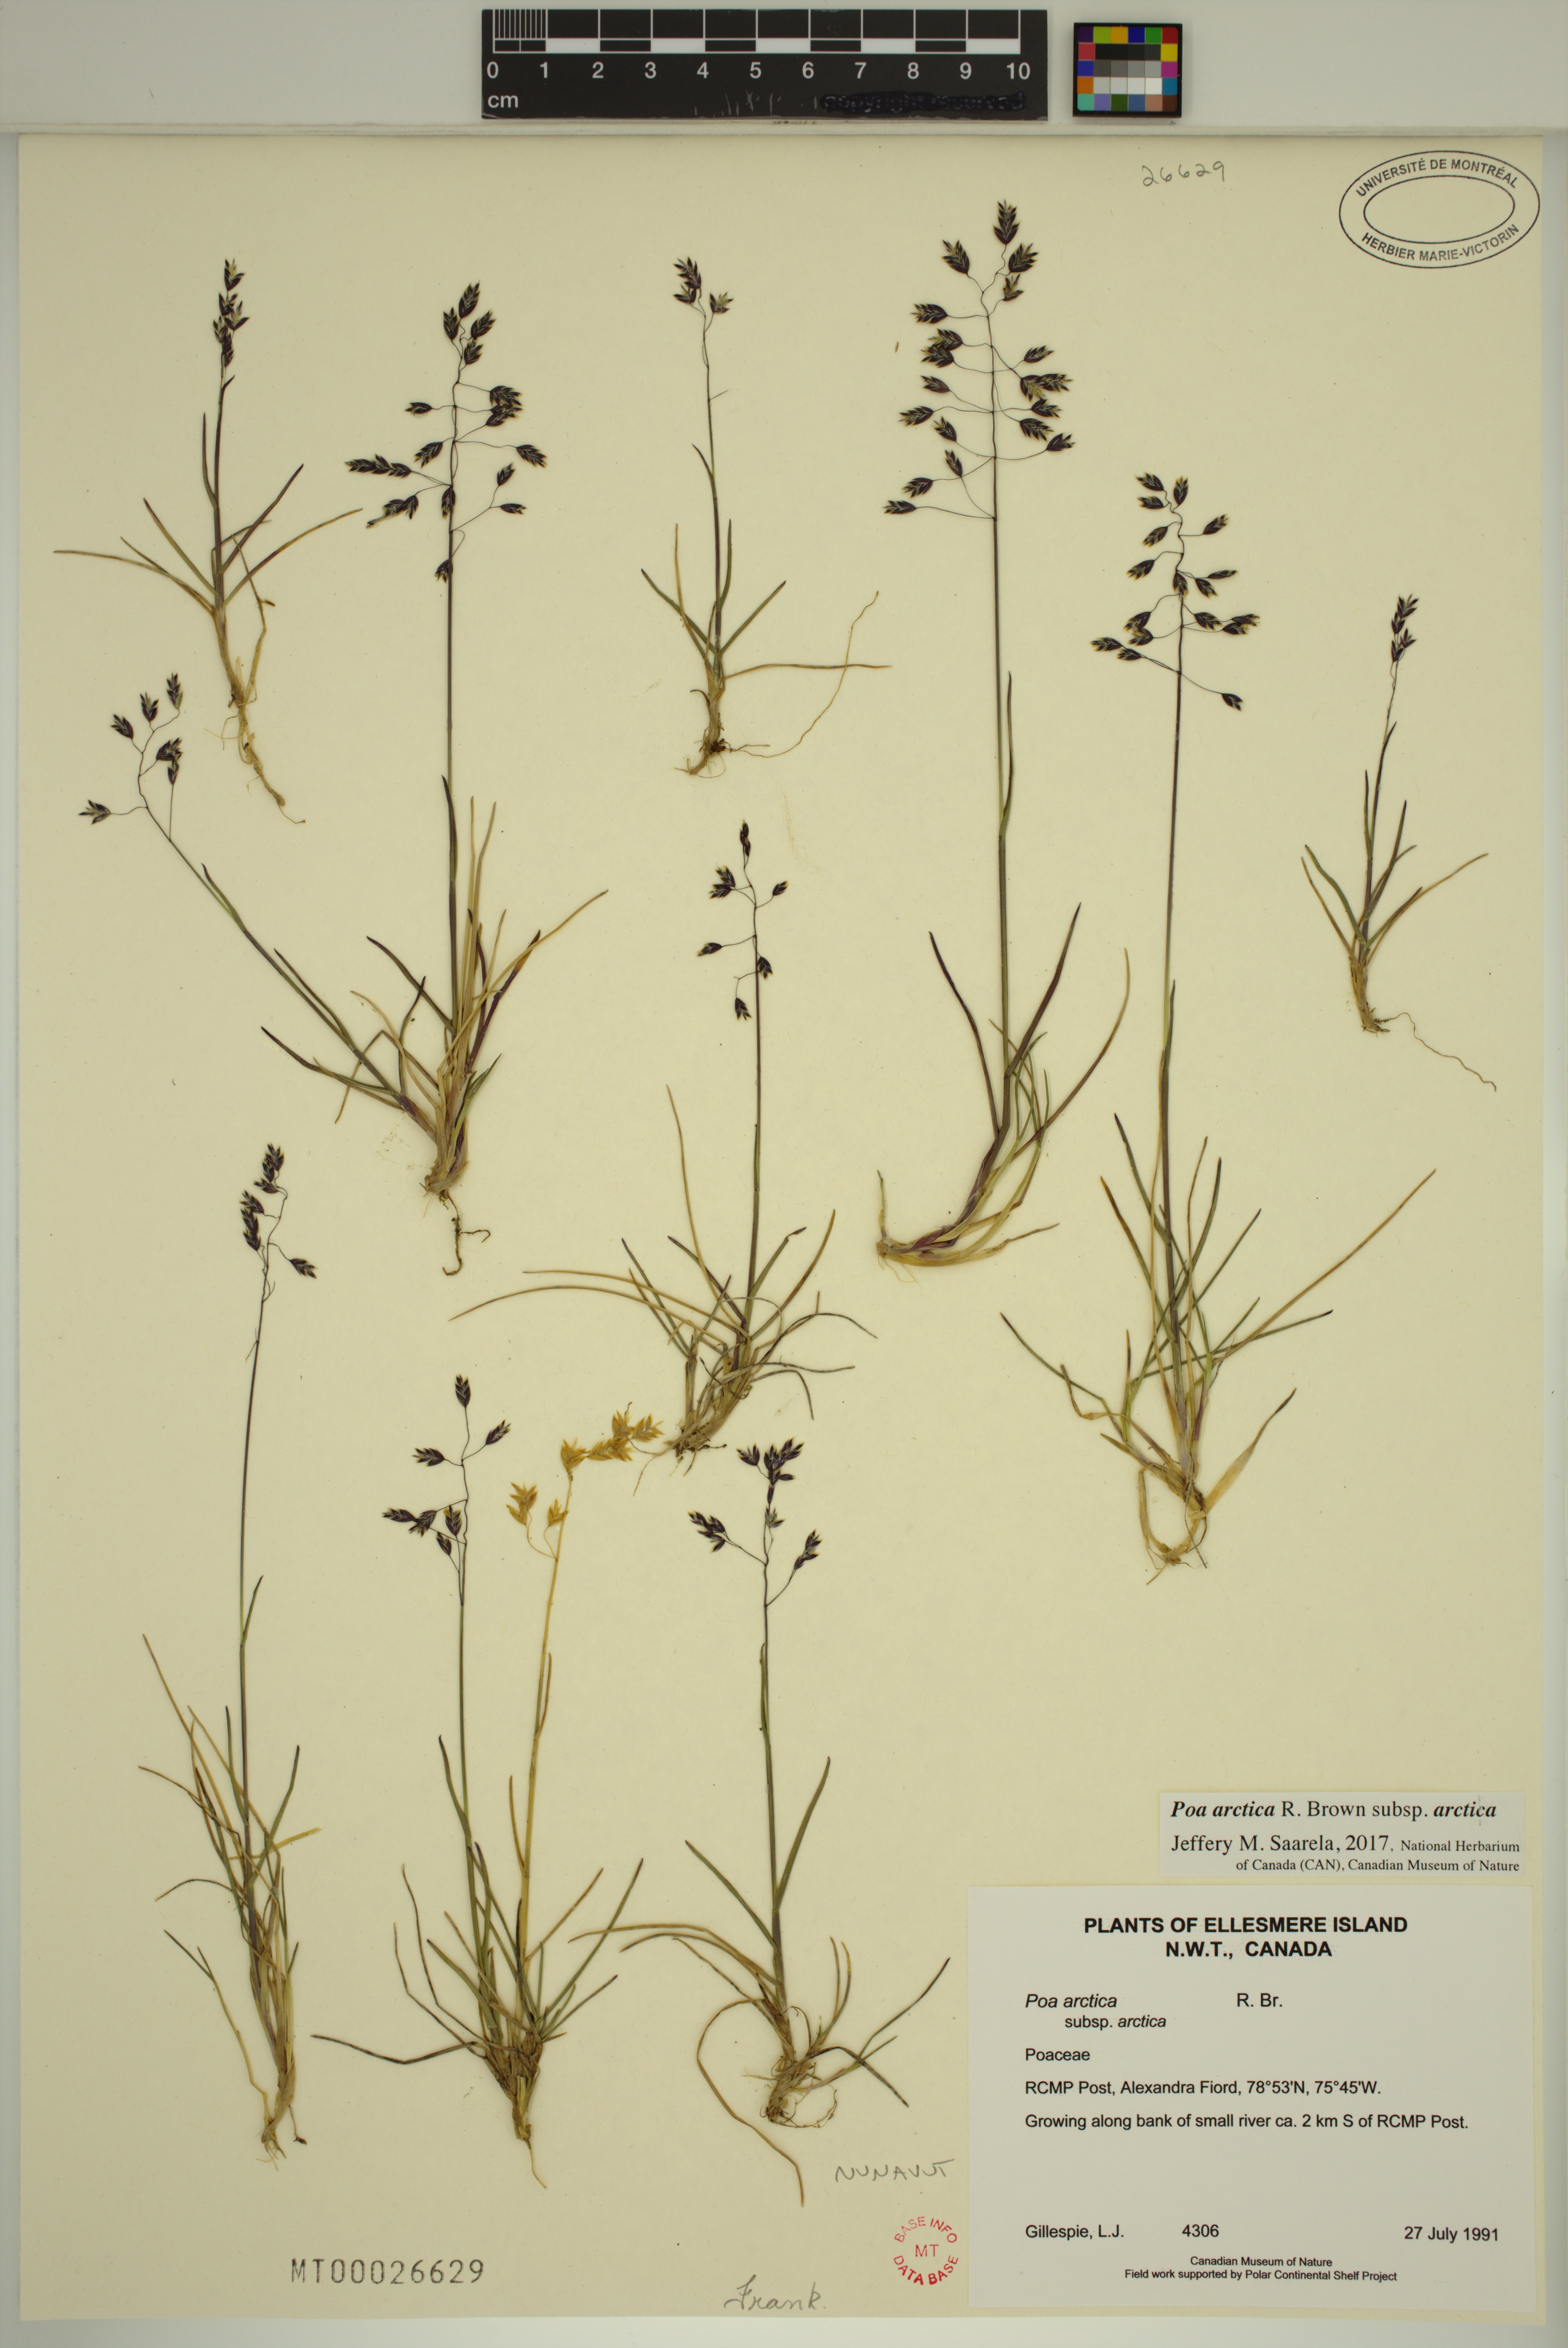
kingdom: Plantae
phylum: Tracheophyta
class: Liliopsida
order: Poales
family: Poaceae
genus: Poa
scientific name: Poa arctica
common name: Arctic bluegrass
